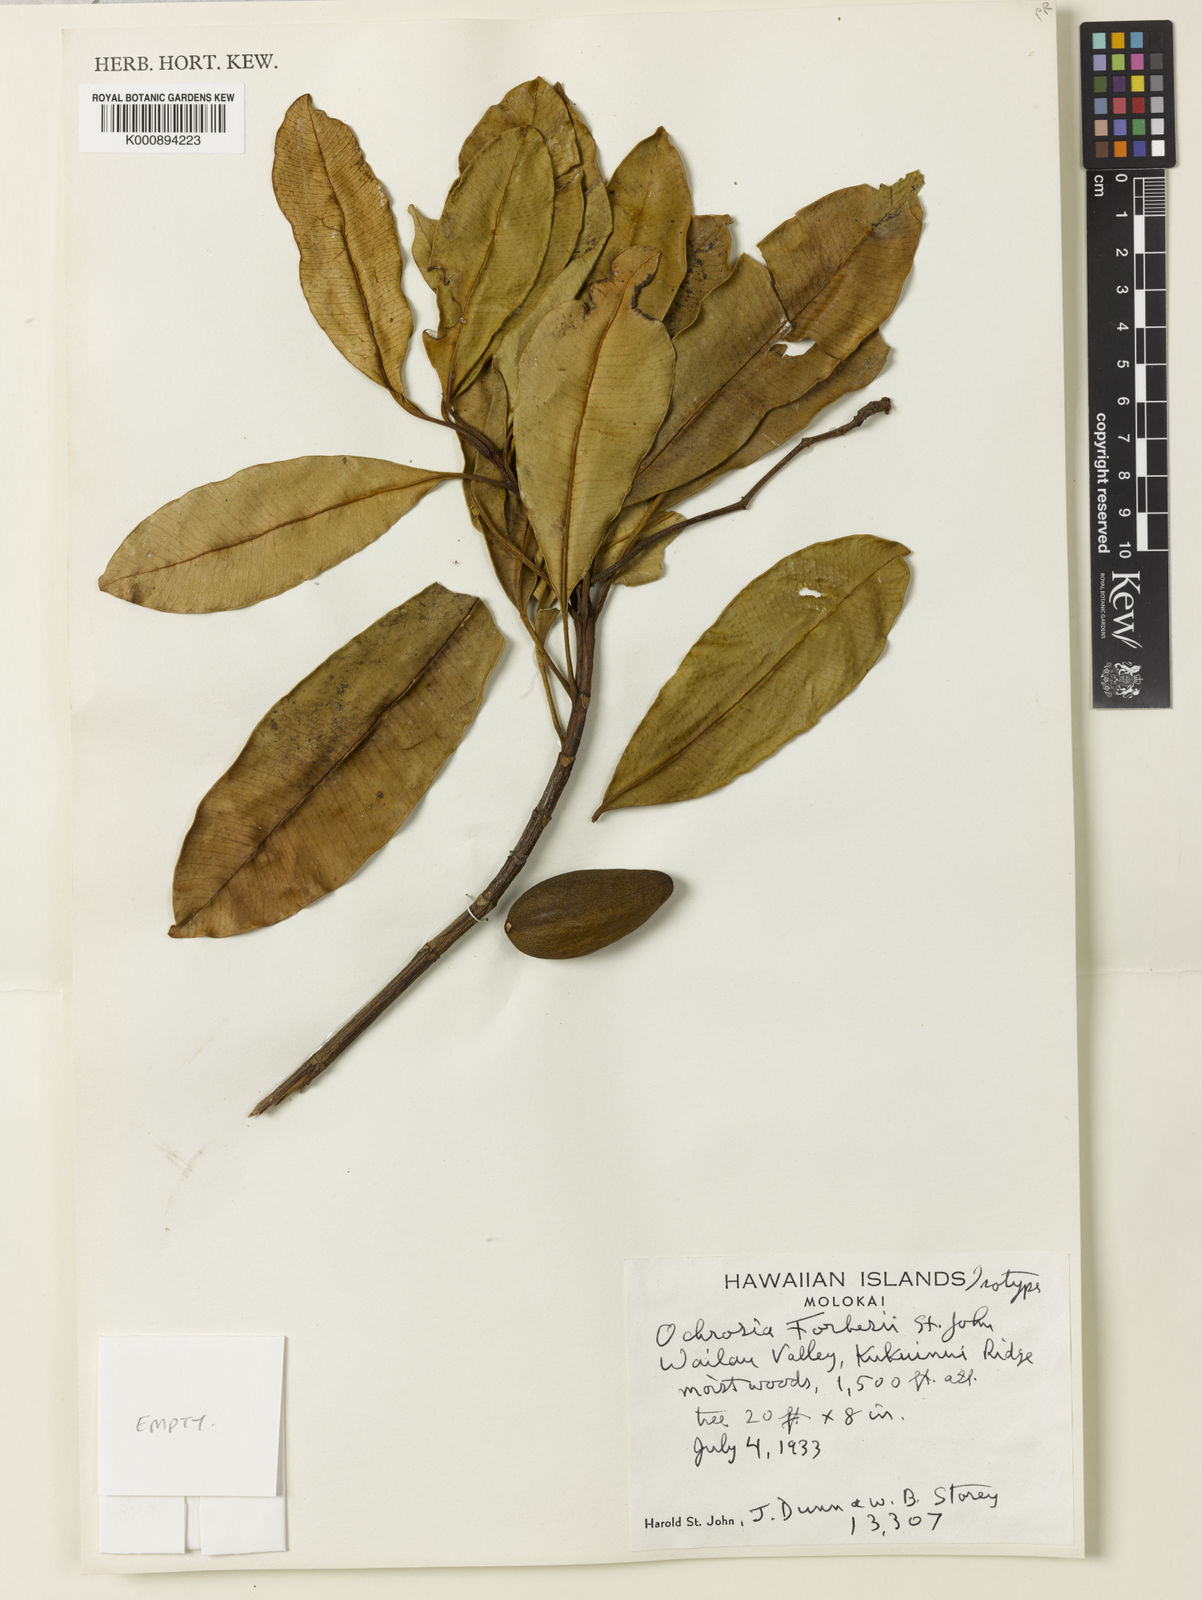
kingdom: Plantae
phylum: Tracheophyta
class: Magnoliopsida
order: Gentianales
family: Apocynaceae
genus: Ochrosia
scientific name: Ochrosia compta
